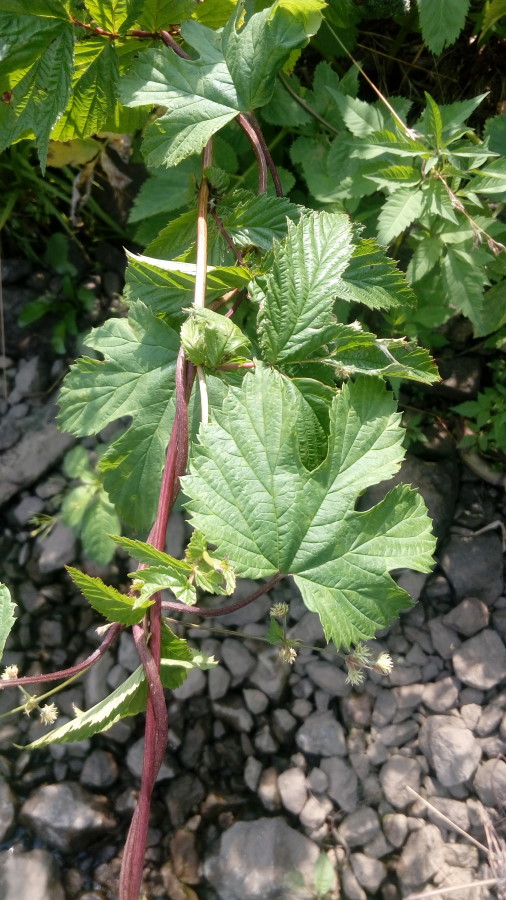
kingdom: Plantae
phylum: Tracheophyta
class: Magnoliopsida
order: Rosales
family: Cannabaceae
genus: Humulus
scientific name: Humulus lupulus
